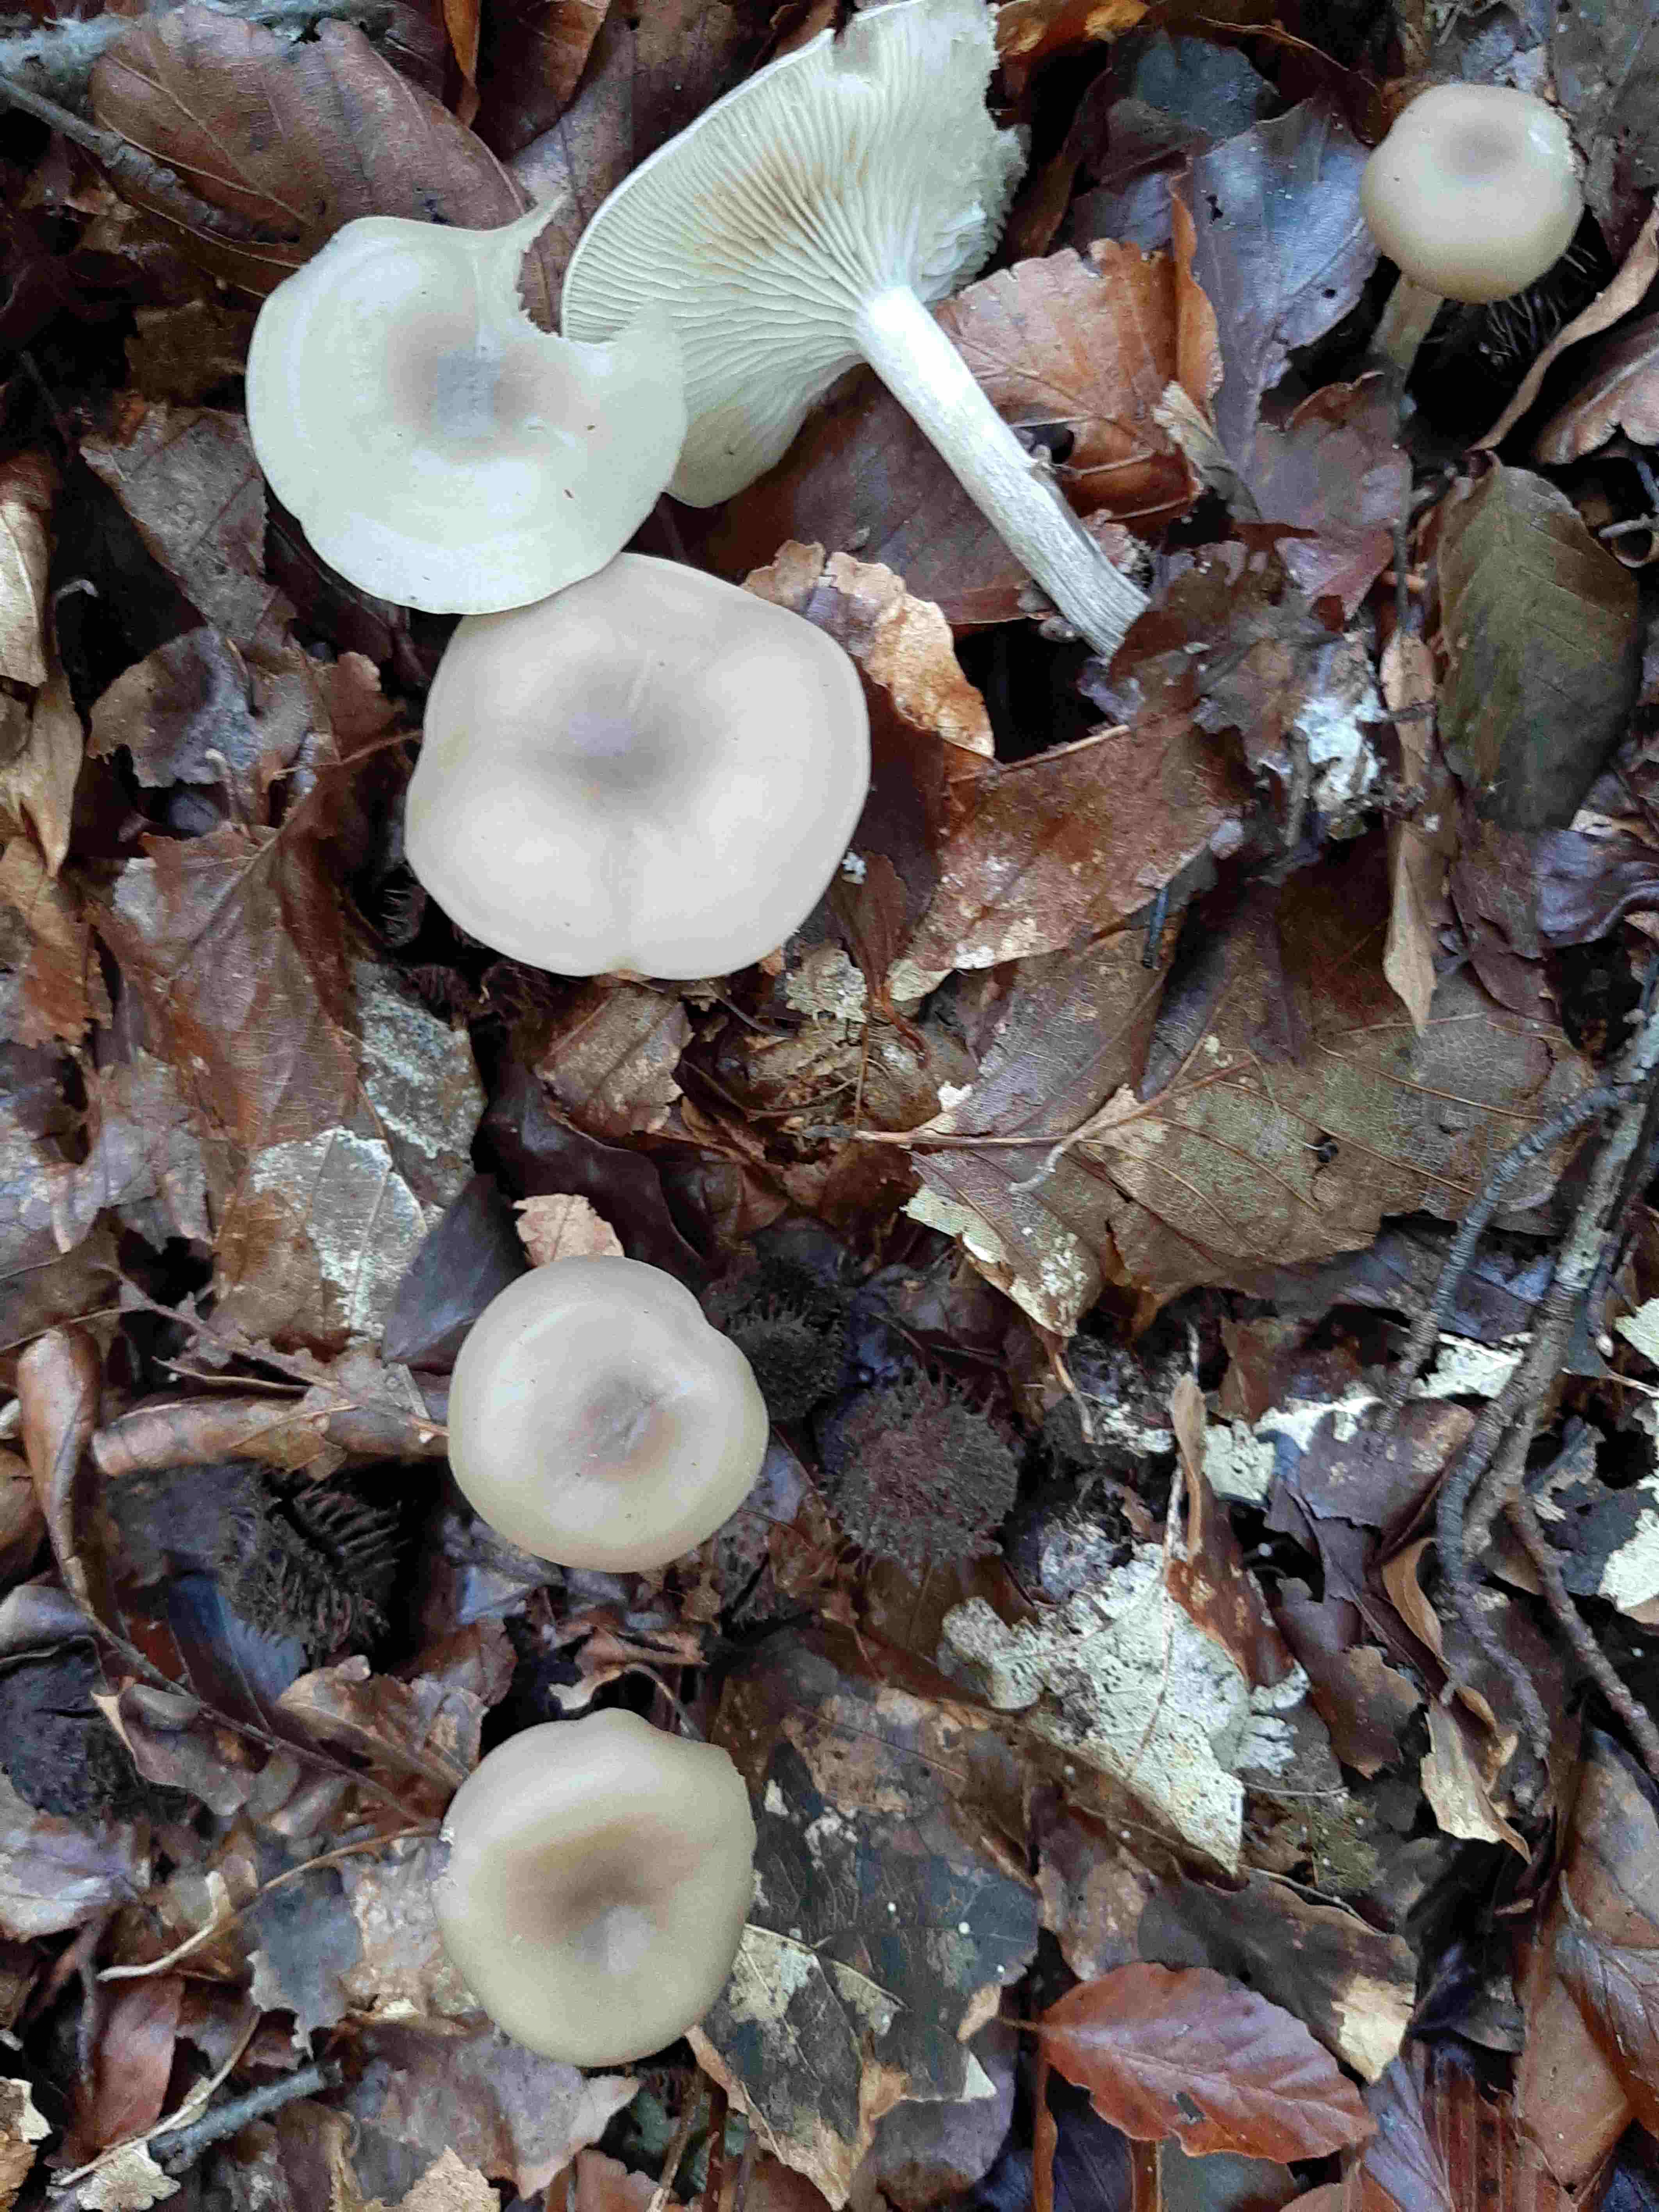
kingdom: Fungi
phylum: Basidiomycota
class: Agaricomycetes
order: Agaricales
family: Tricholomataceae
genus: Clitocybe
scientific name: Clitocybe
